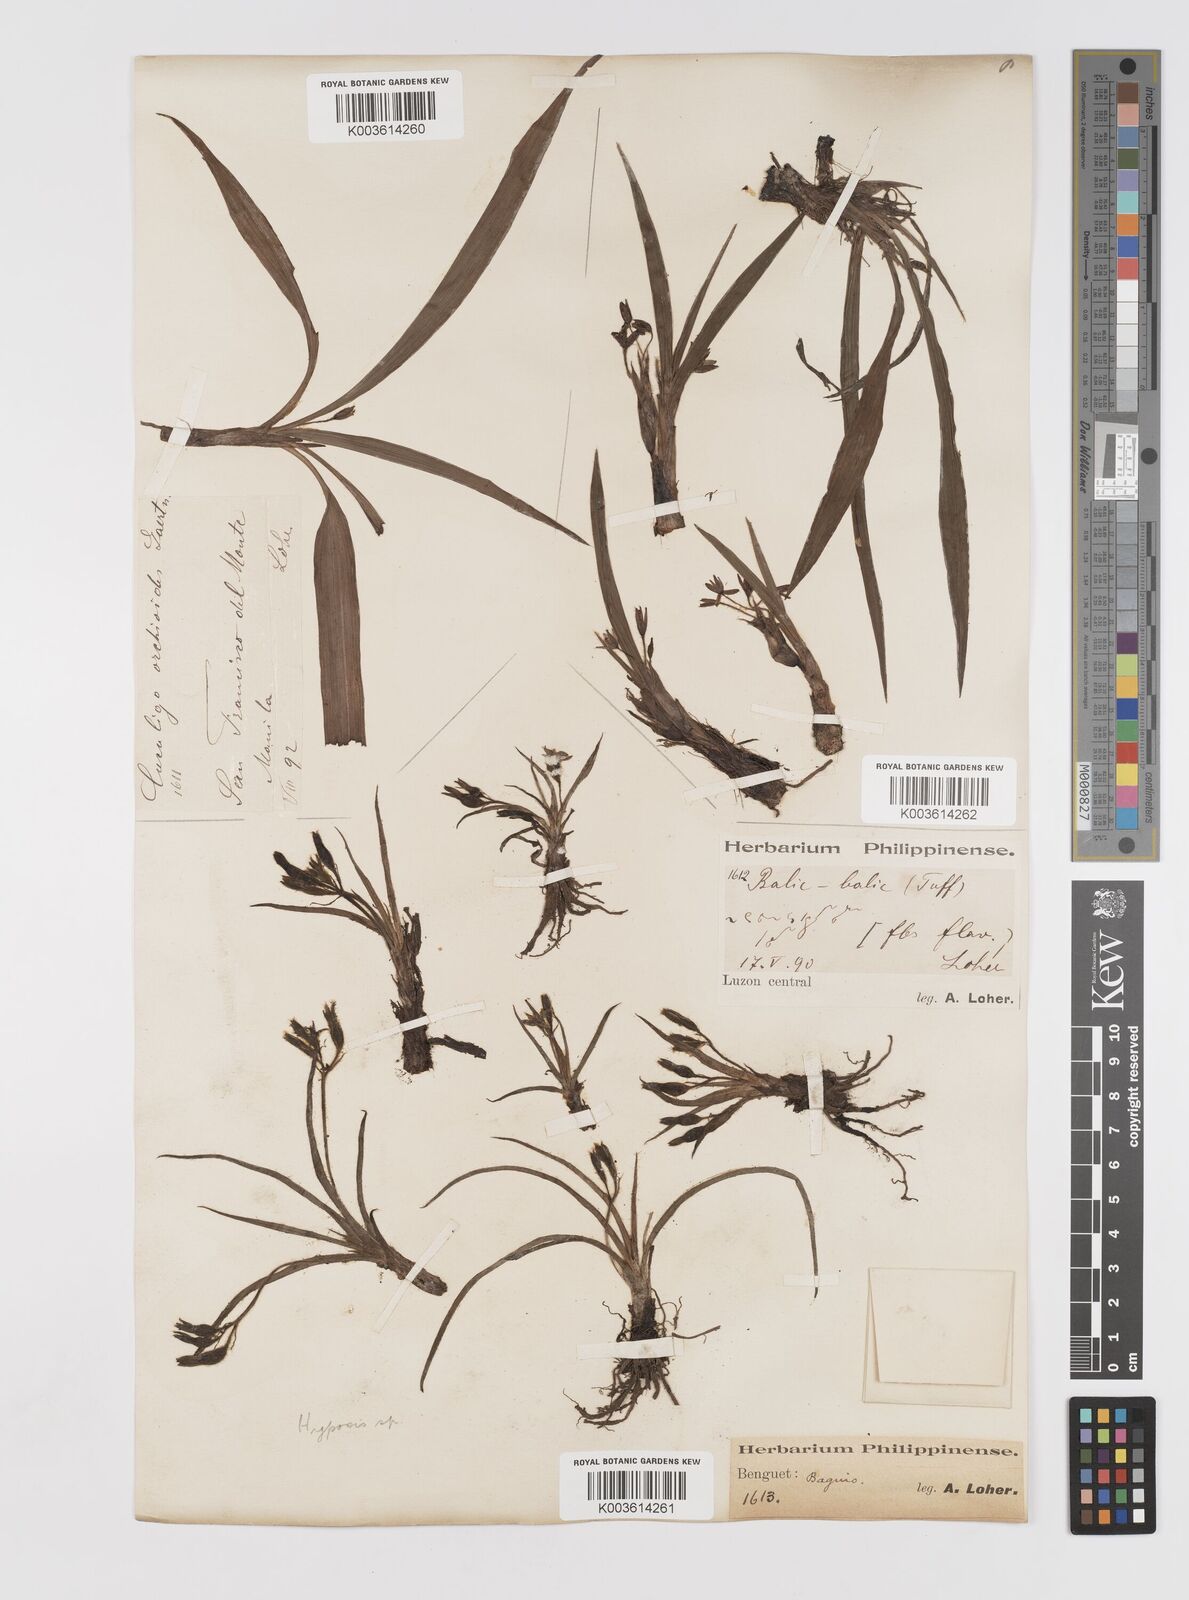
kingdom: Plantae
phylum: Tracheophyta
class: Liliopsida
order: Asparagales
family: Hypoxidaceae
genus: Curculigo
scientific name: Curculigo orchioides
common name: Golden eye-grass
